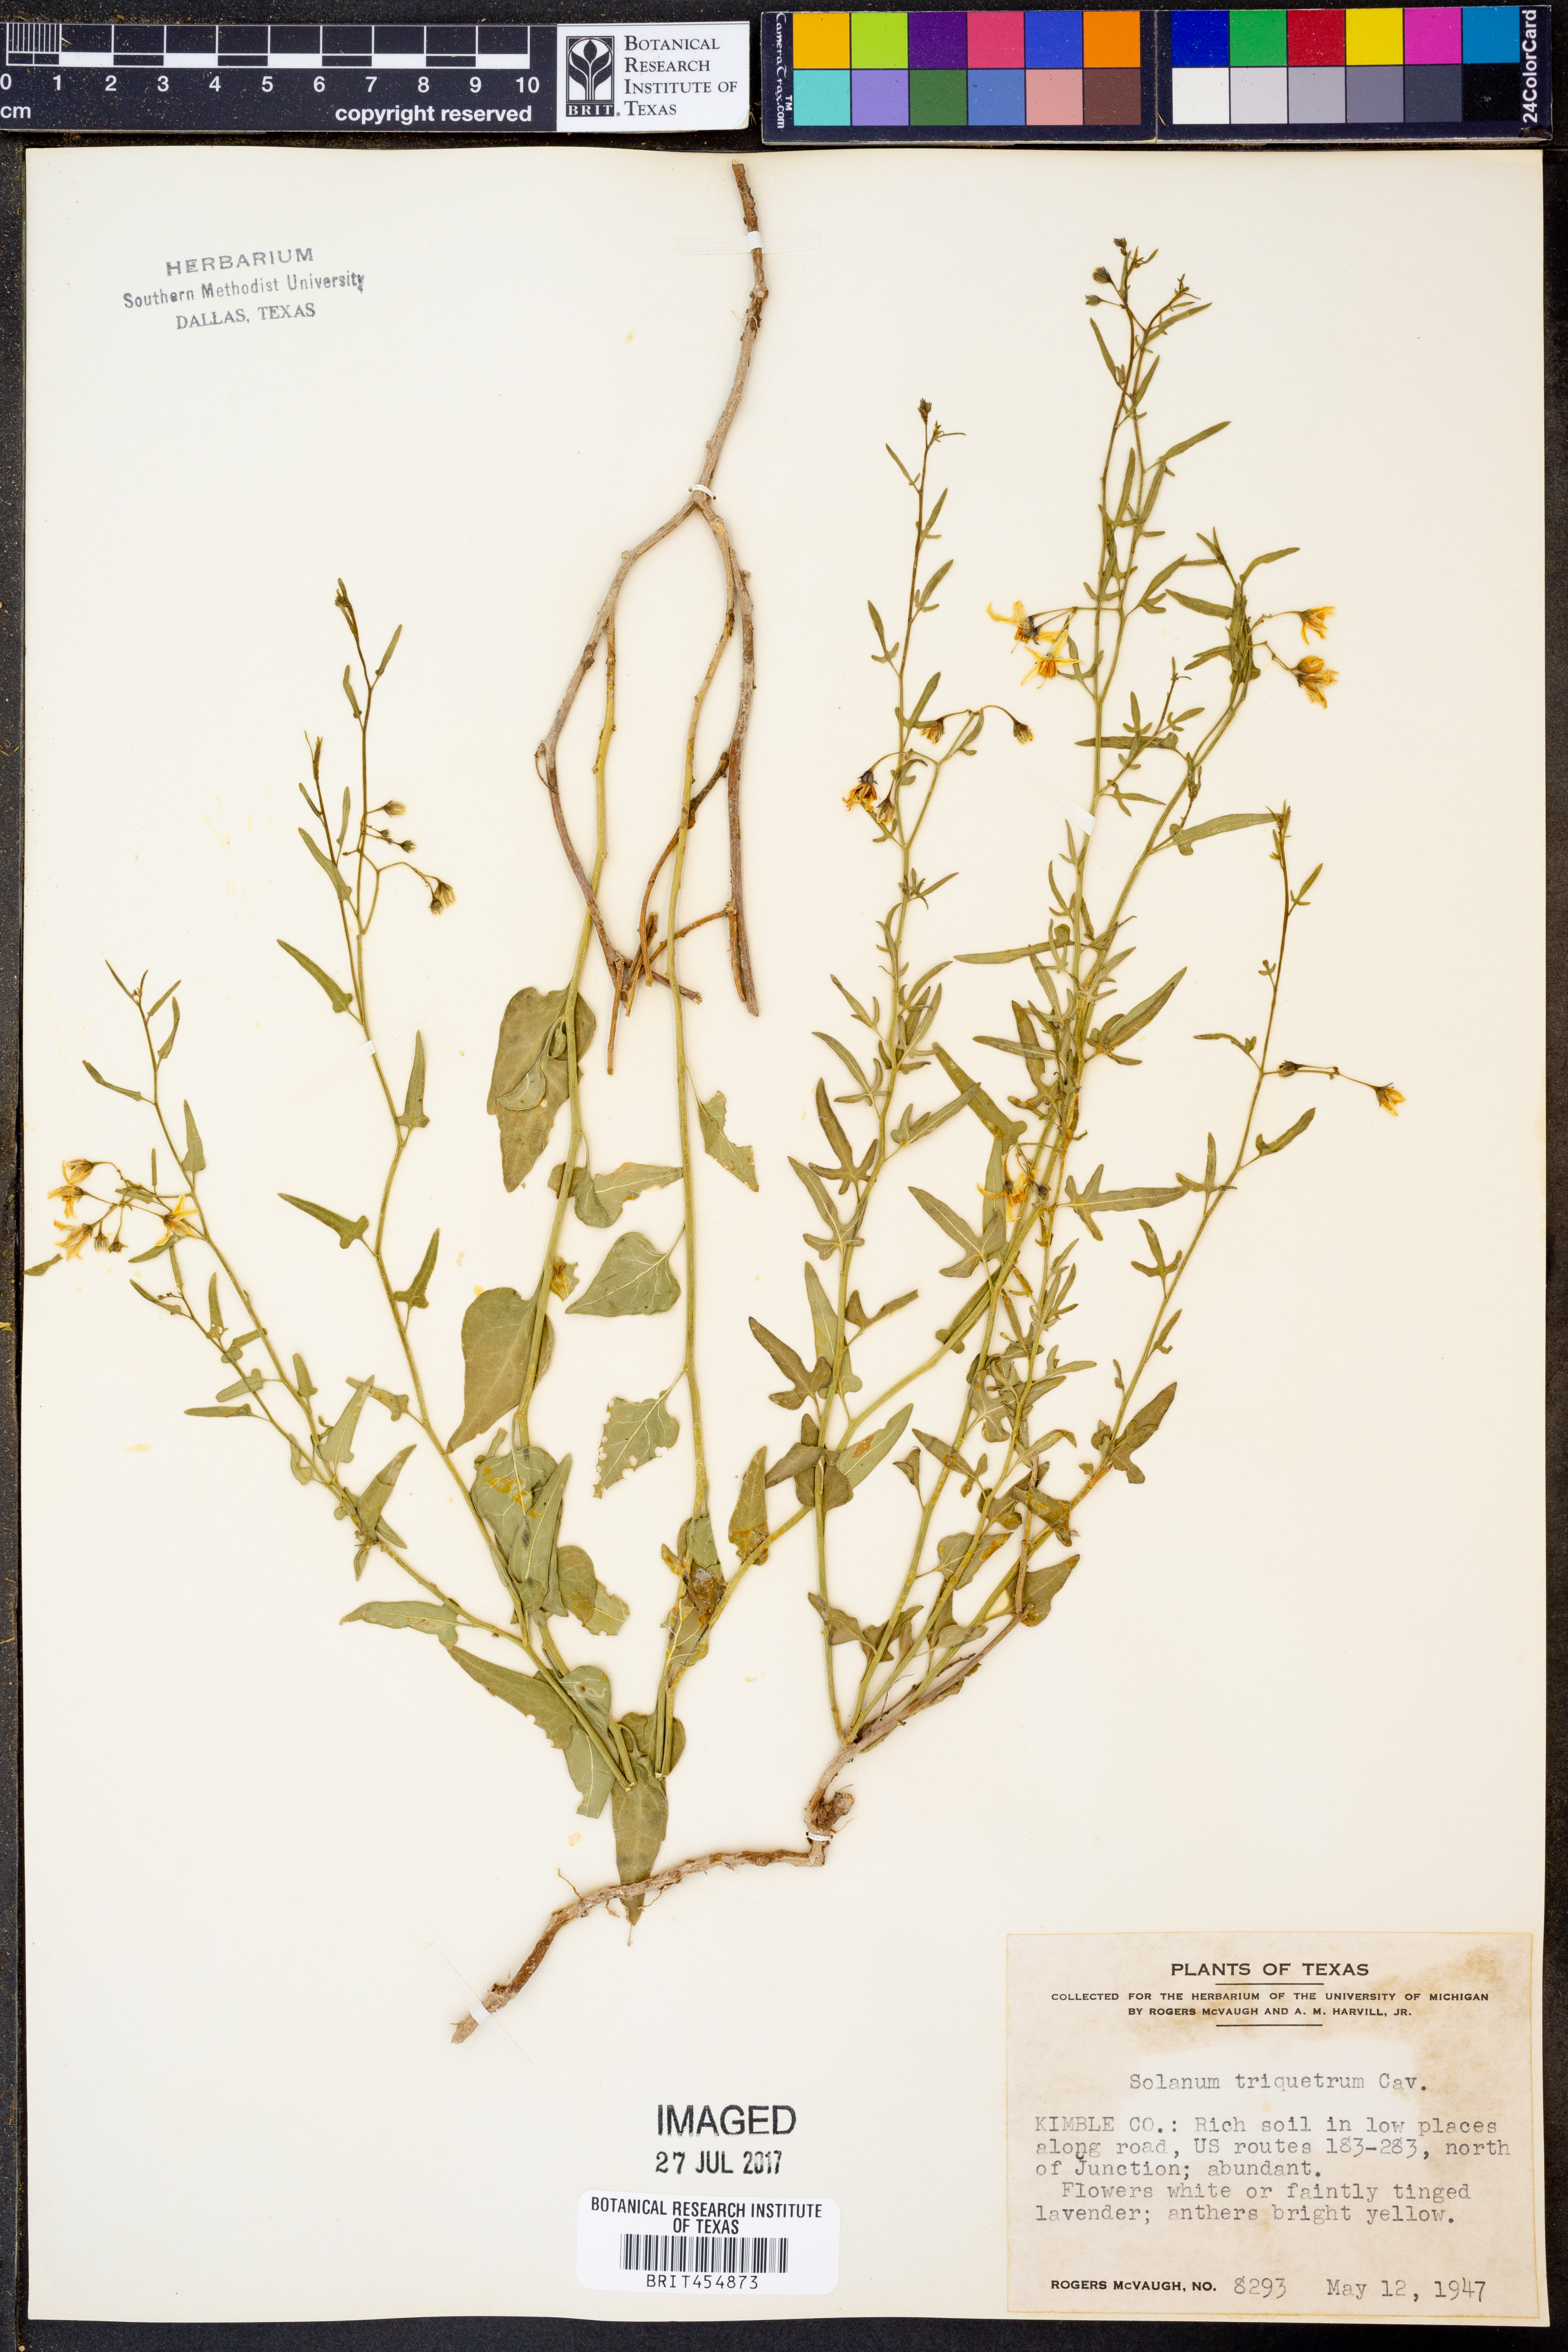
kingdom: Plantae
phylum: Tracheophyta
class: Magnoliopsida
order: Solanales
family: Solanaceae
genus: Solanum
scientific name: Solanum triquetrum
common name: Texas nightshade
